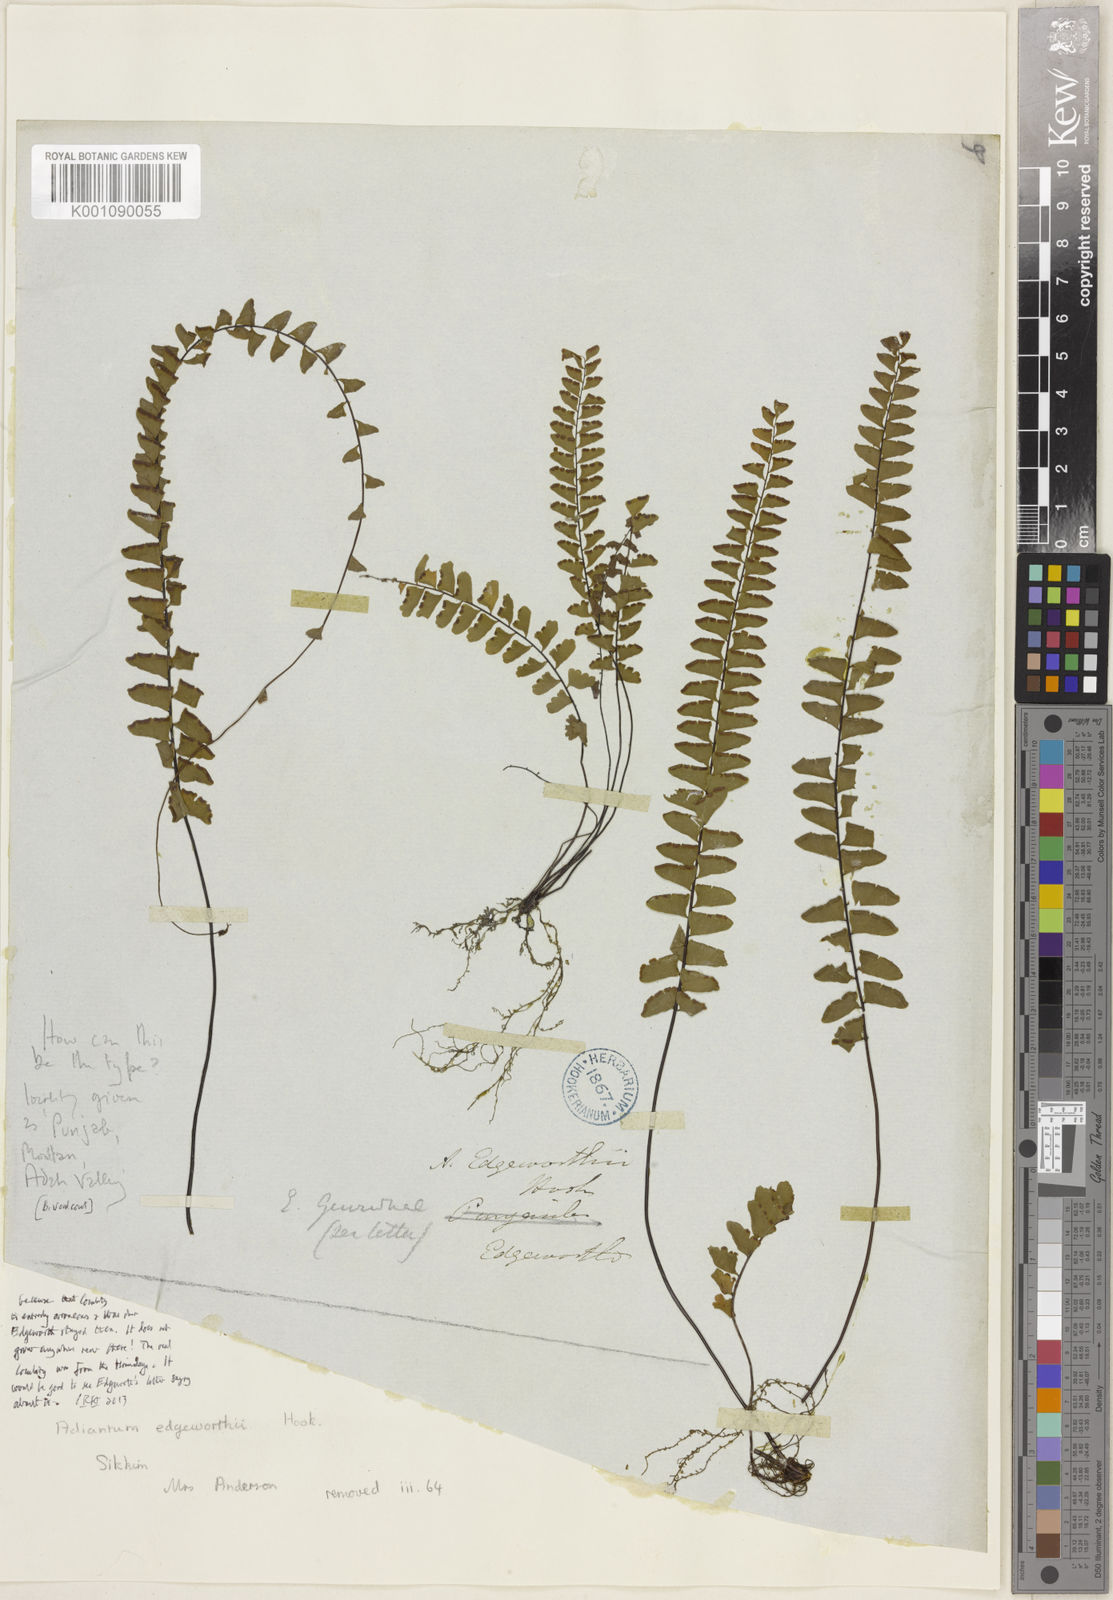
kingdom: Plantae
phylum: Tracheophyta
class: Polypodiopsida
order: Polypodiales
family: Pteridaceae
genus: Adiantum
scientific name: Adiantum edgeworthii
